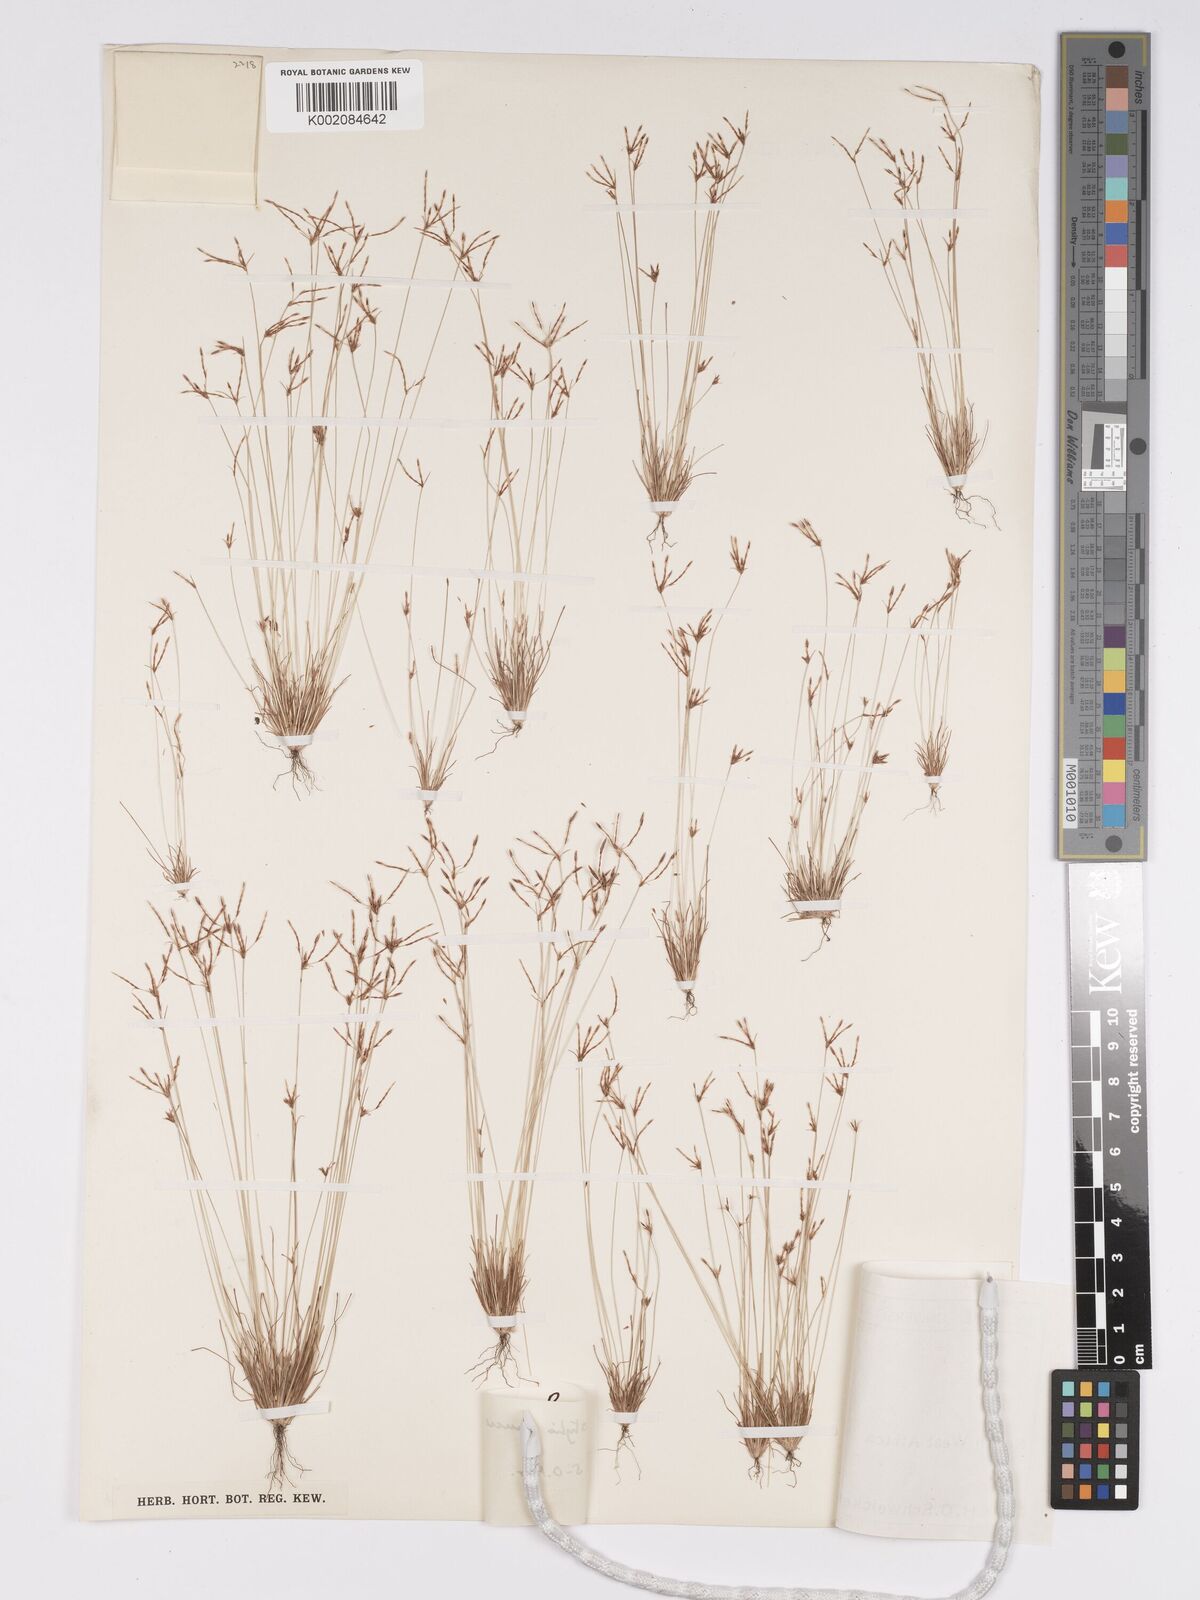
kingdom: Plantae
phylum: Tracheophyta
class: Liliopsida
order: Poales
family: Cyperaceae
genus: Bulbostylis
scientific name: Bulbostylis mucronata
